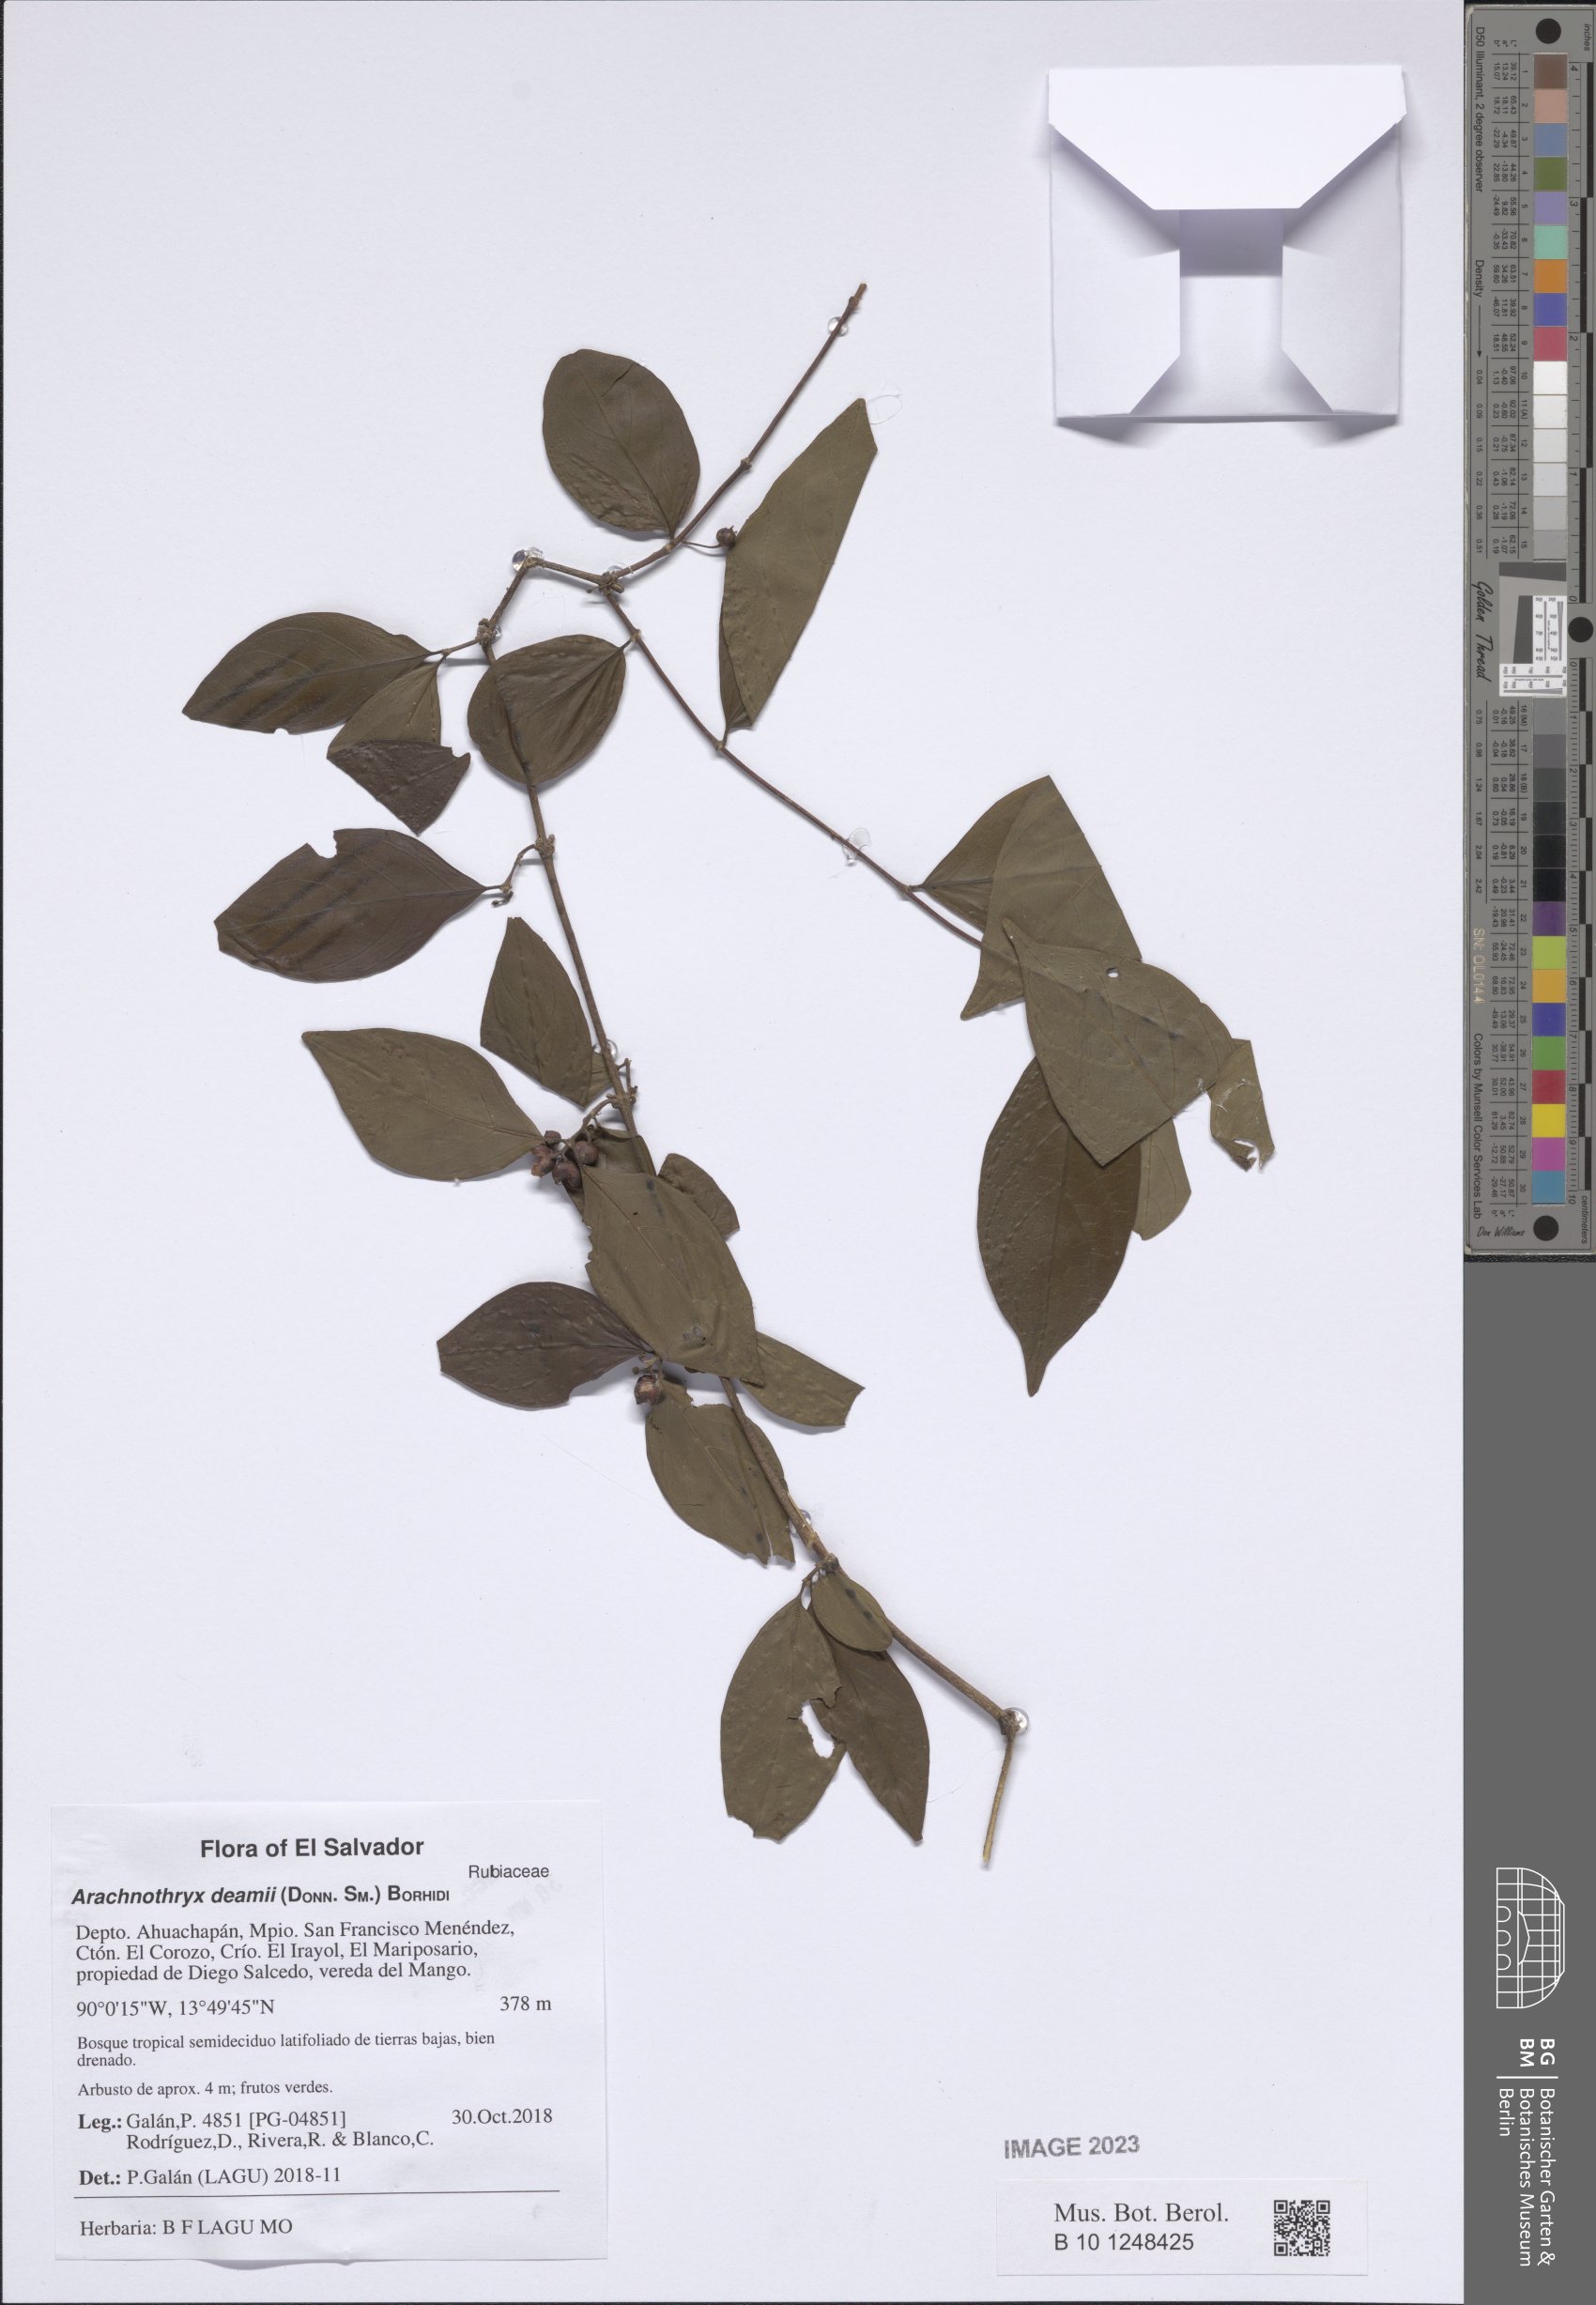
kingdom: Plantae
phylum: Tracheophyta
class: Magnoliopsida
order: Gentianales
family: Rubiaceae
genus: Donnellyanthus
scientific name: Donnellyanthus deamii
